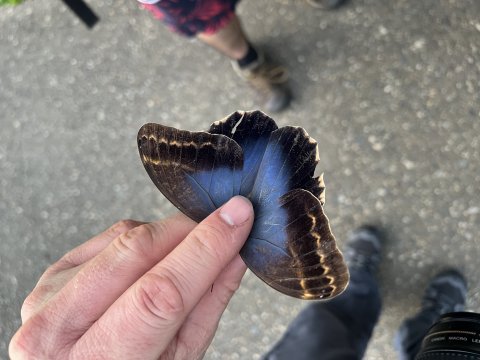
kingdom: Animalia
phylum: Arthropoda
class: Insecta
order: Lepidoptera
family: Nymphalidae
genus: Caligo
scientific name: Caligo illioneus
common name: Dusky Owl-Butterfly
